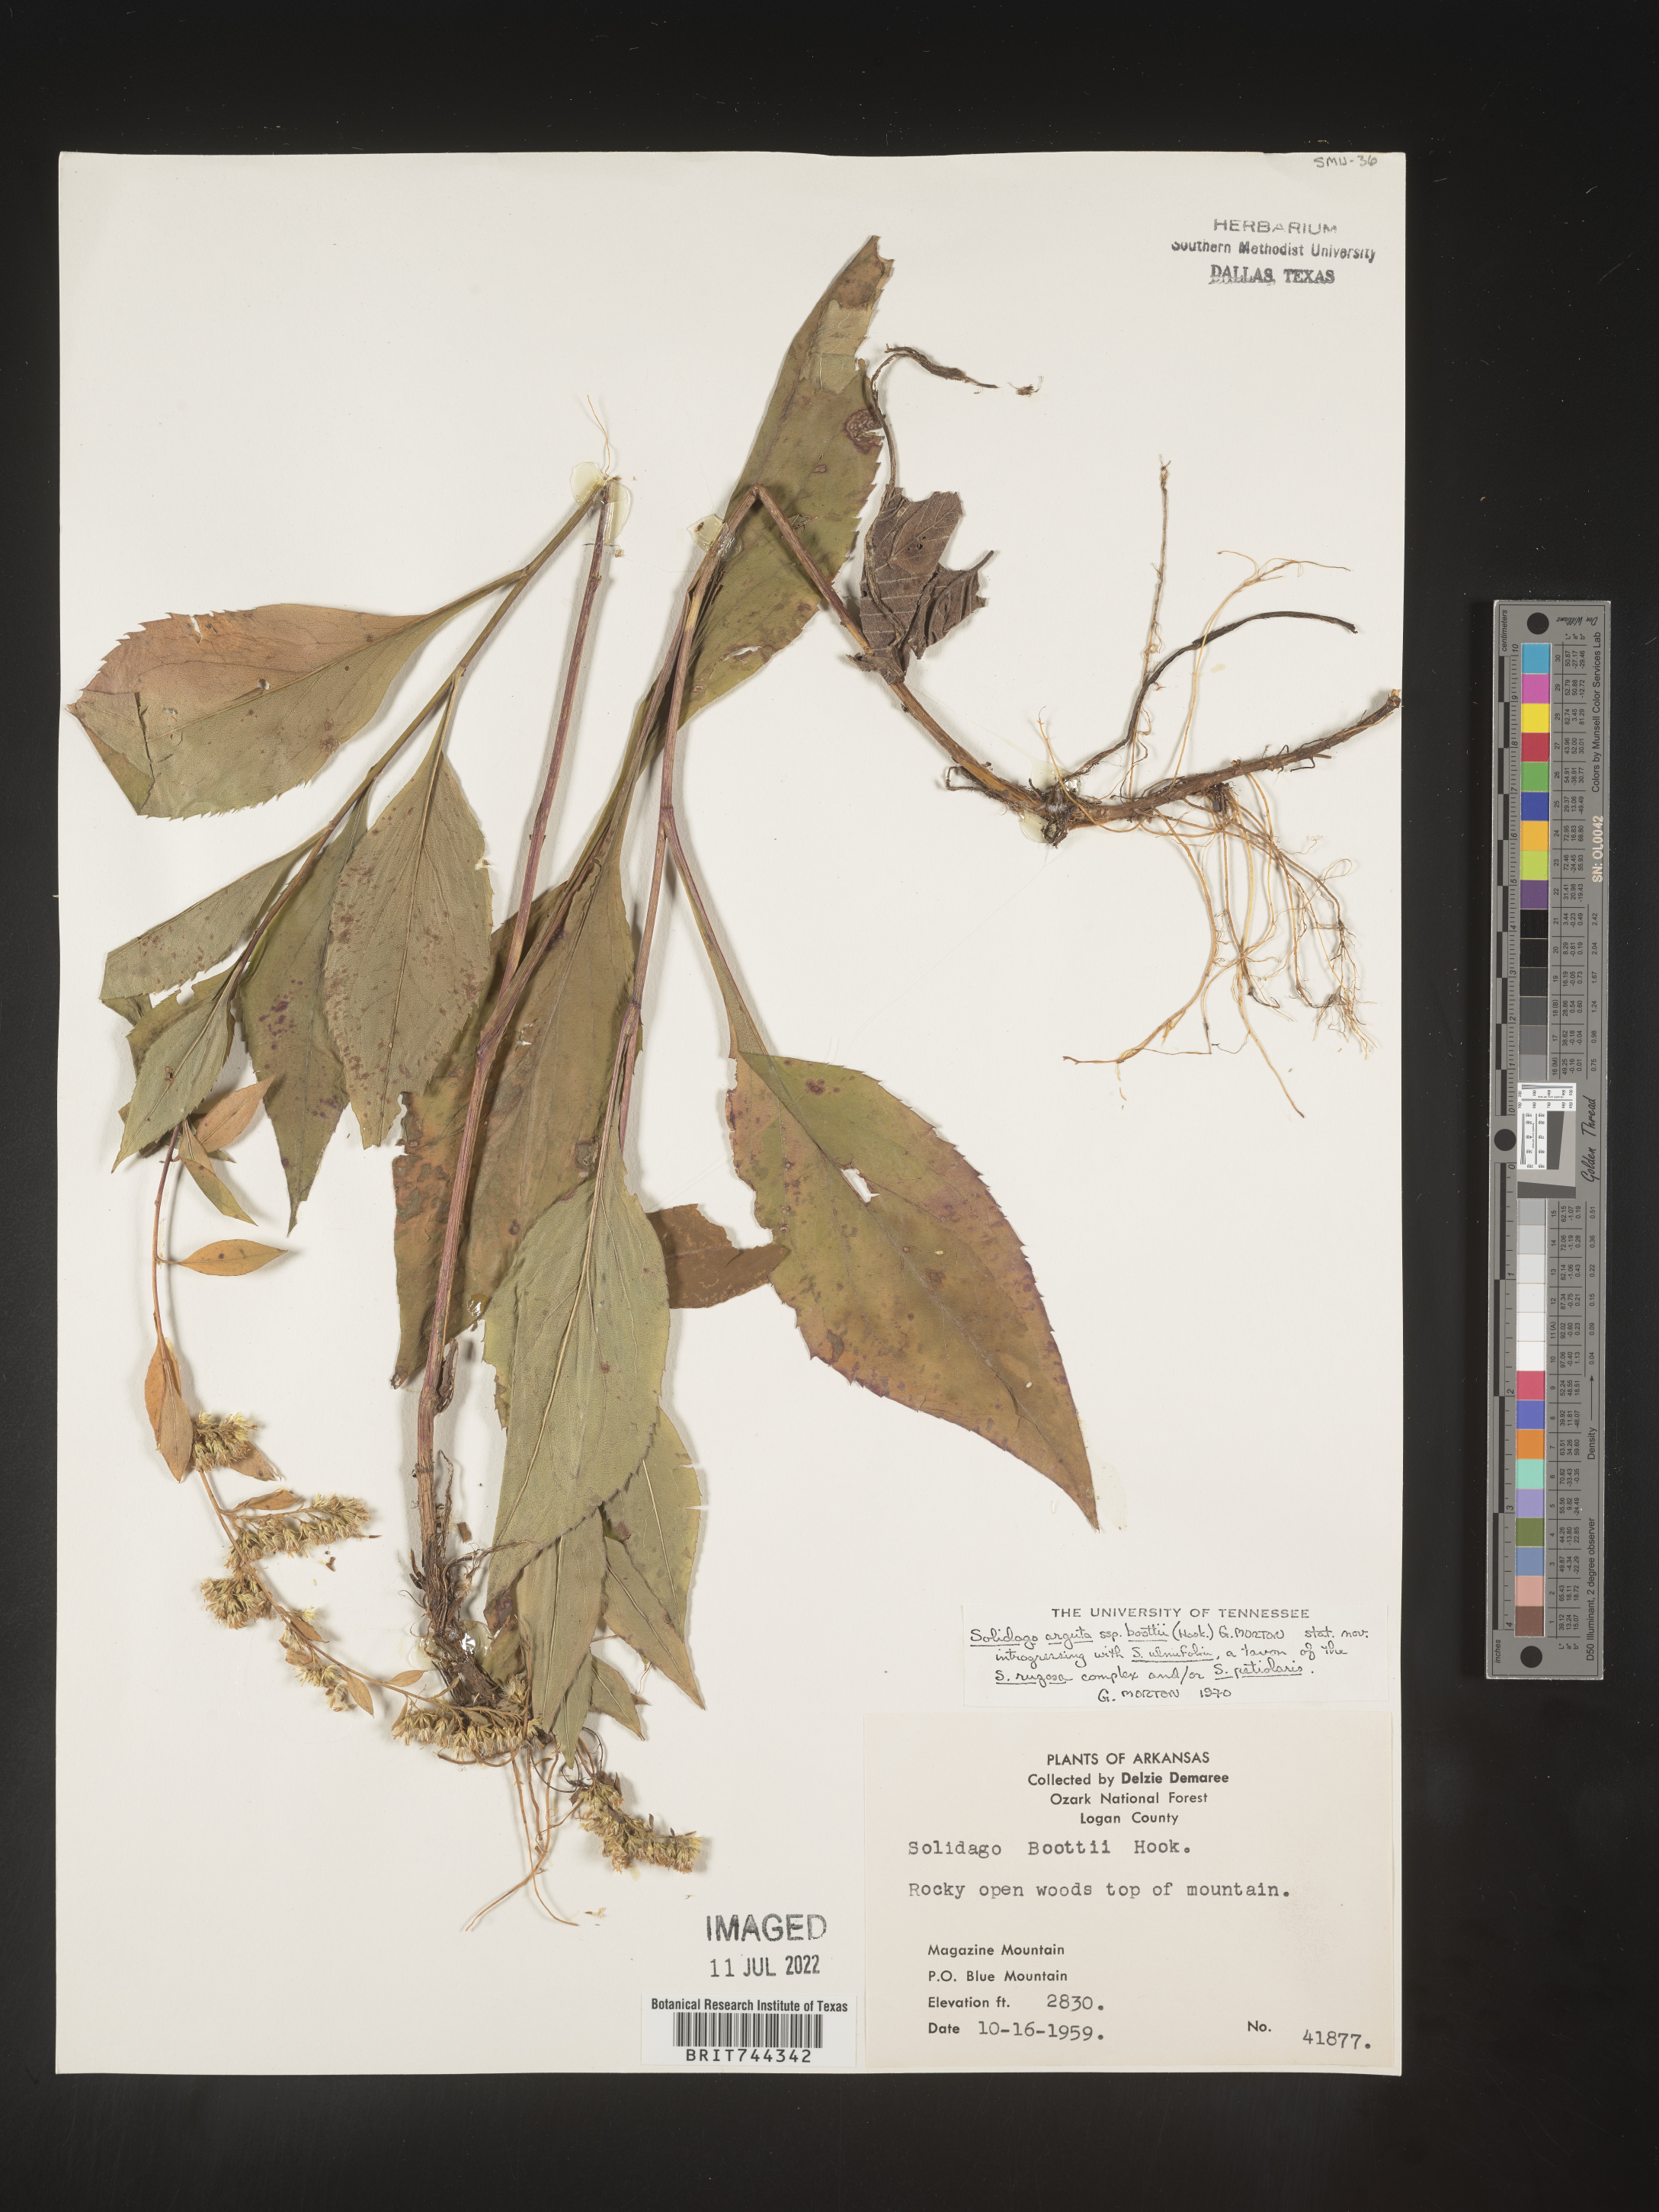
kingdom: Plantae
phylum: Tracheophyta
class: Magnoliopsida
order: Asterales
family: Asteraceae
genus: Solidago
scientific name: Solidago arguta
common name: Atlantic goldenrod
